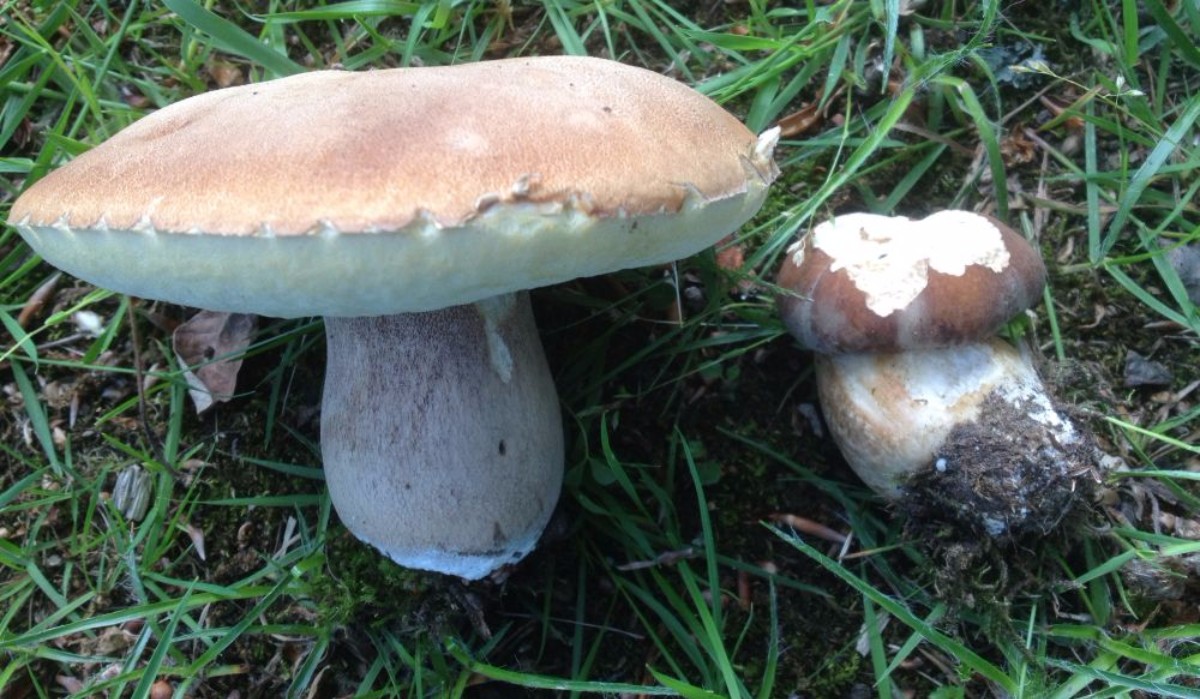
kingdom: Fungi
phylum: Basidiomycota
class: Agaricomycetes
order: Boletales
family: Boletaceae
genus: Boletus
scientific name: Boletus reticulatus
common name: sommer-rørhat
